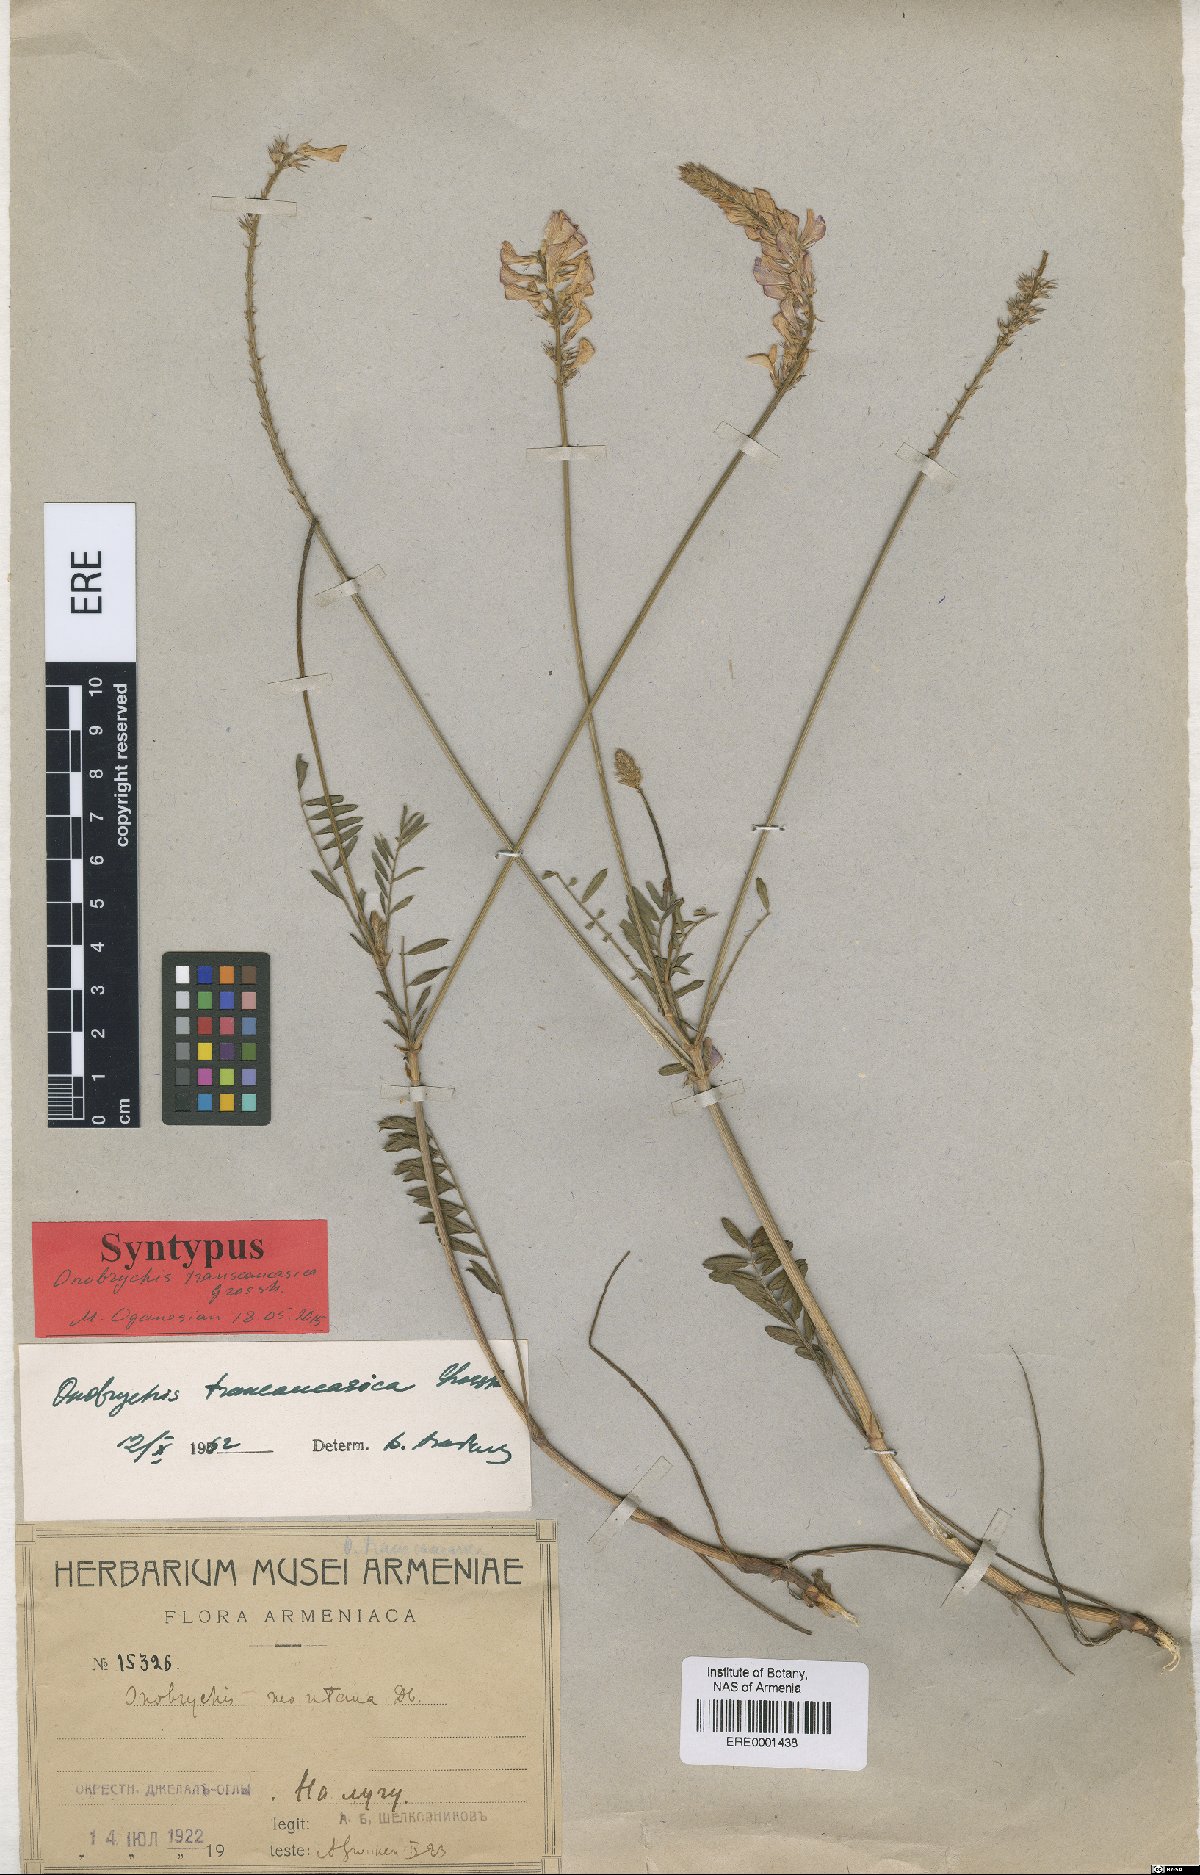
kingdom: Plantae
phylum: Tracheophyta
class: Magnoliopsida
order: Fabales
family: Fabaceae
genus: Onobrychis
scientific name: Onobrychis transcaucasica
